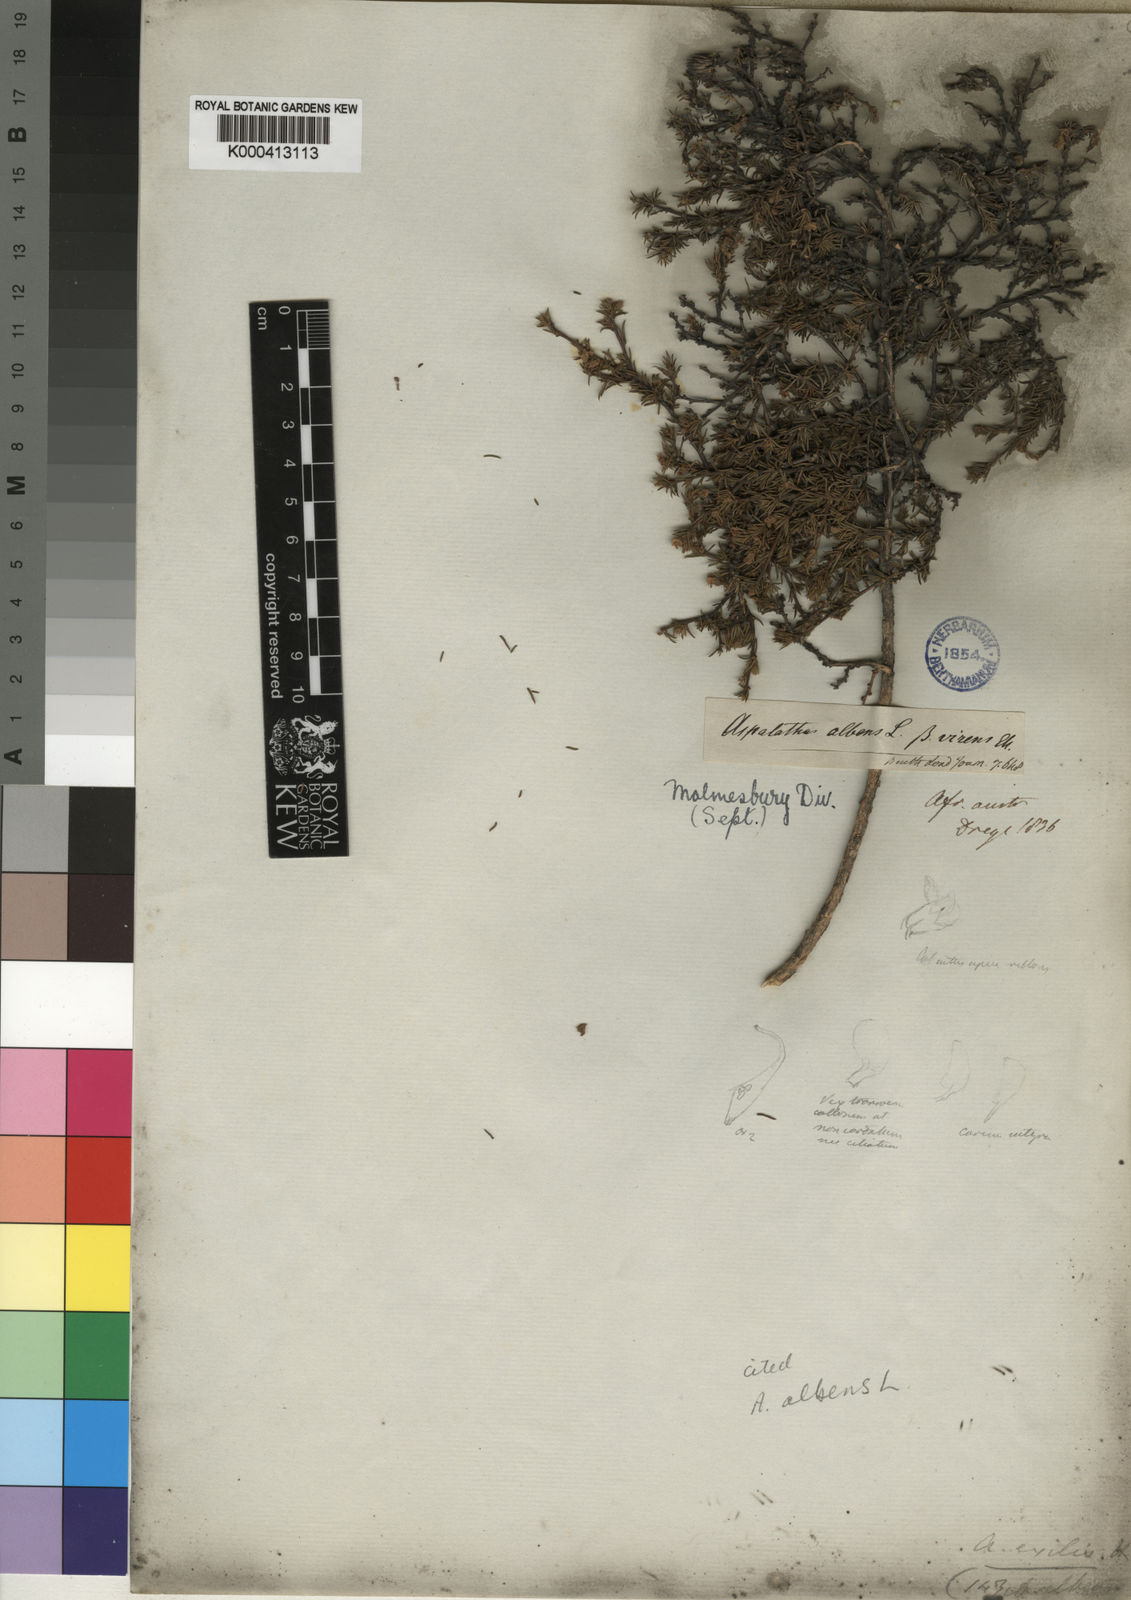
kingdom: Plantae
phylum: Tracheophyta
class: Magnoliopsida
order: Fabales
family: Fabaceae
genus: Aspalathus
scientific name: Aspalathus albens
